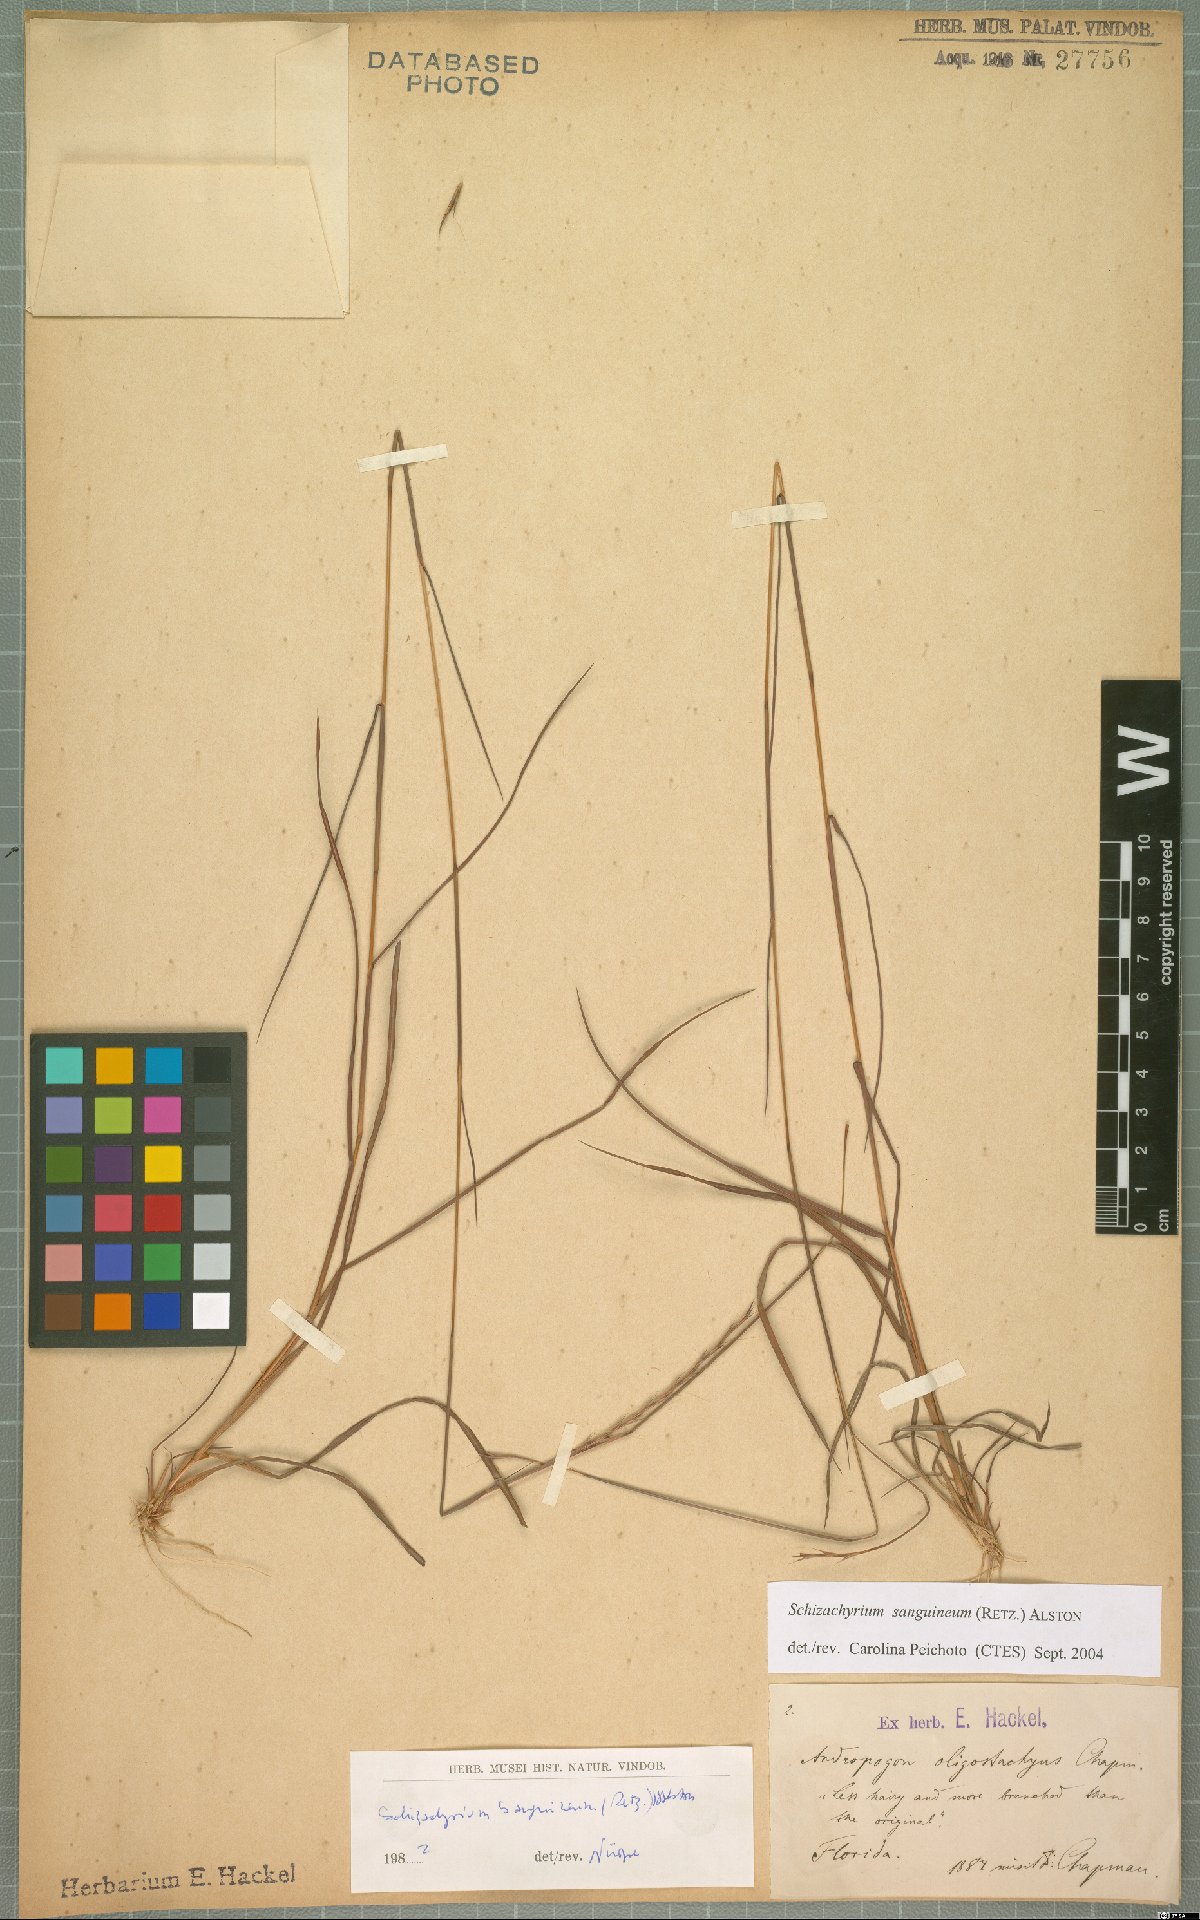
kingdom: Plantae
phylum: Tracheophyta
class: Liliopsida
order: Poales
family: Poaceae
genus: Schizachyrium
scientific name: Schizachyrium sanguineum
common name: Crimson bluestem
